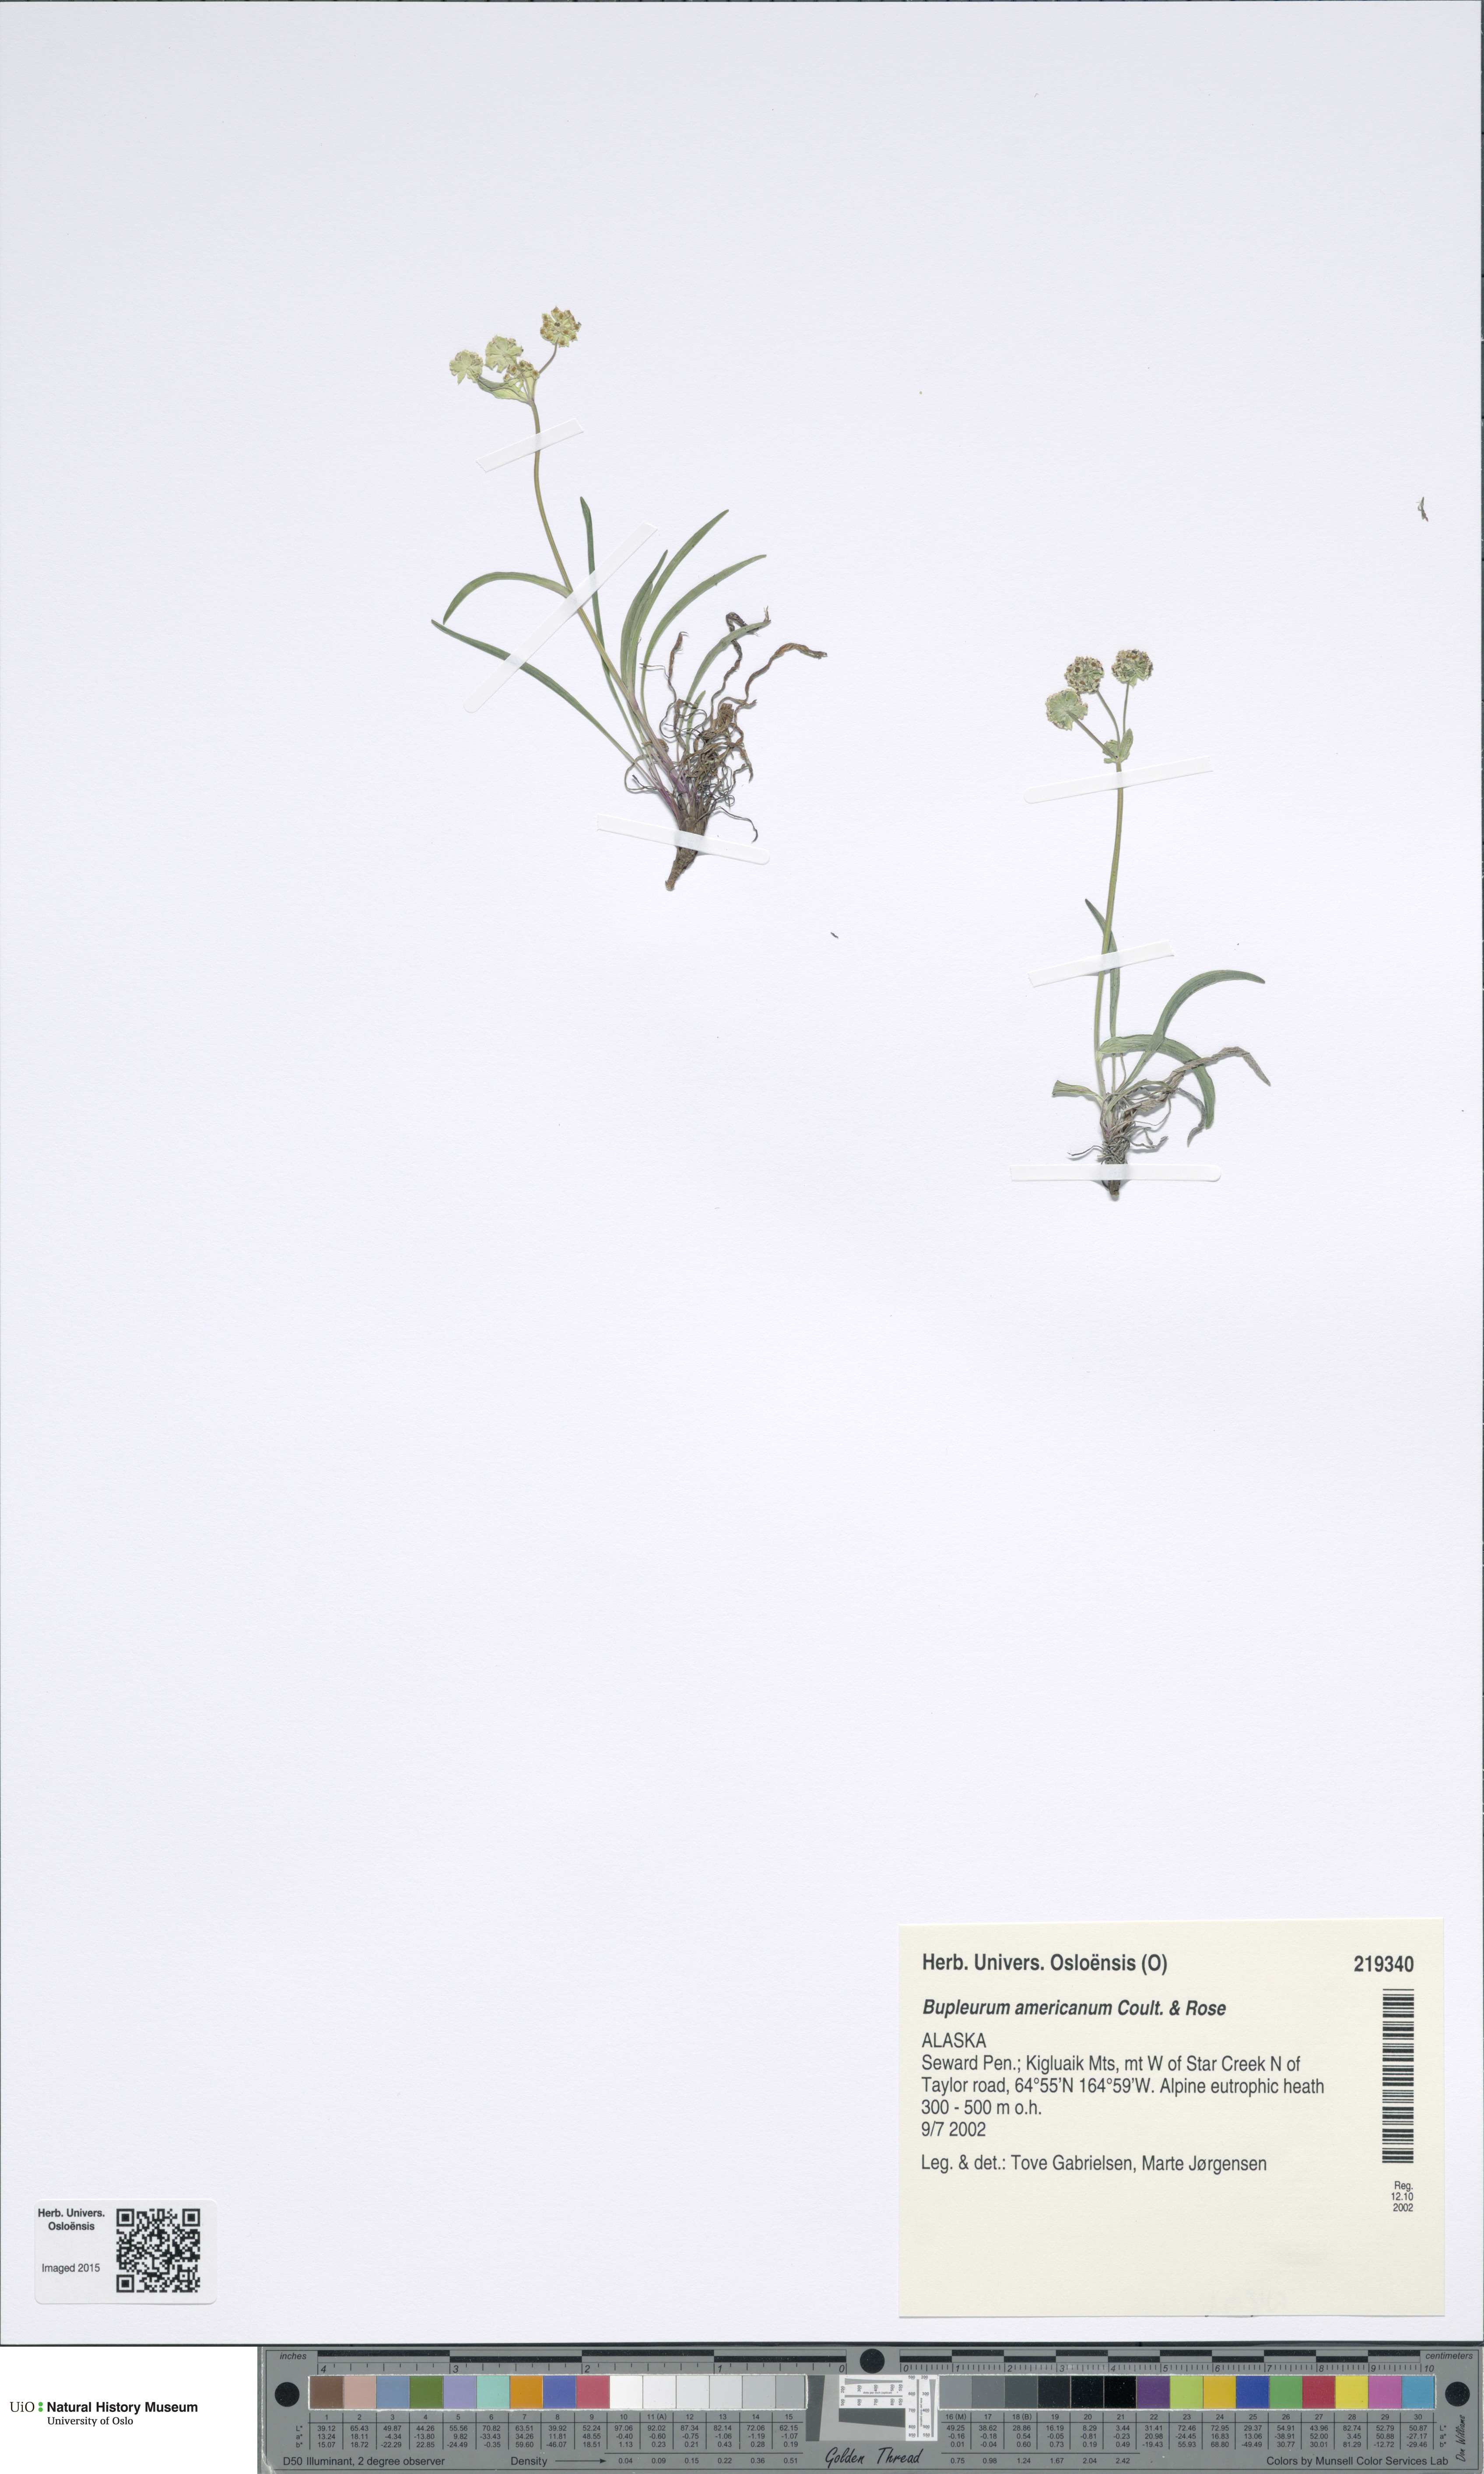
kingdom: Plantae
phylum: Tracheophyta
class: Magnoliopsida
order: Apiales
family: Apiaceae
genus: Bupleurum
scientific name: Bupleurum americanum
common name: American thoroughwax
